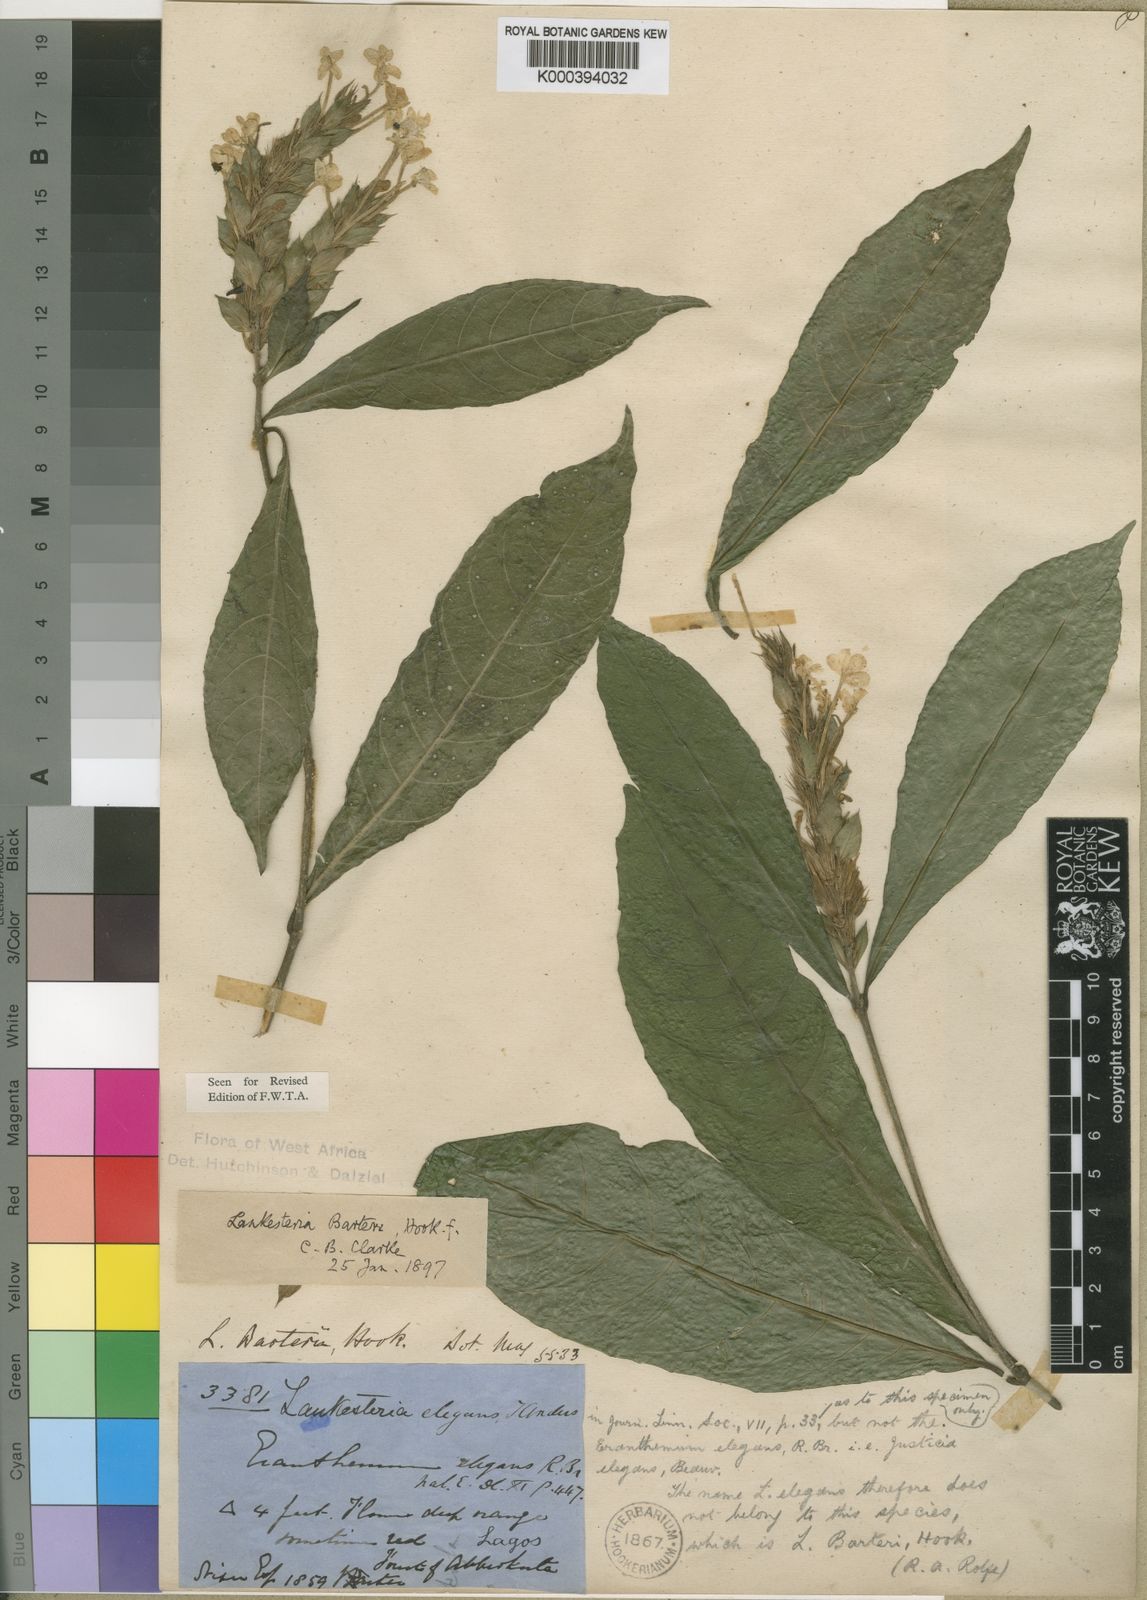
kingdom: Plantae
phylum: Tracheophyta
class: Magnoliopsida
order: Lamiales
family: Acanthaceae
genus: Lankesteria
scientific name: Lankesteria barteri
